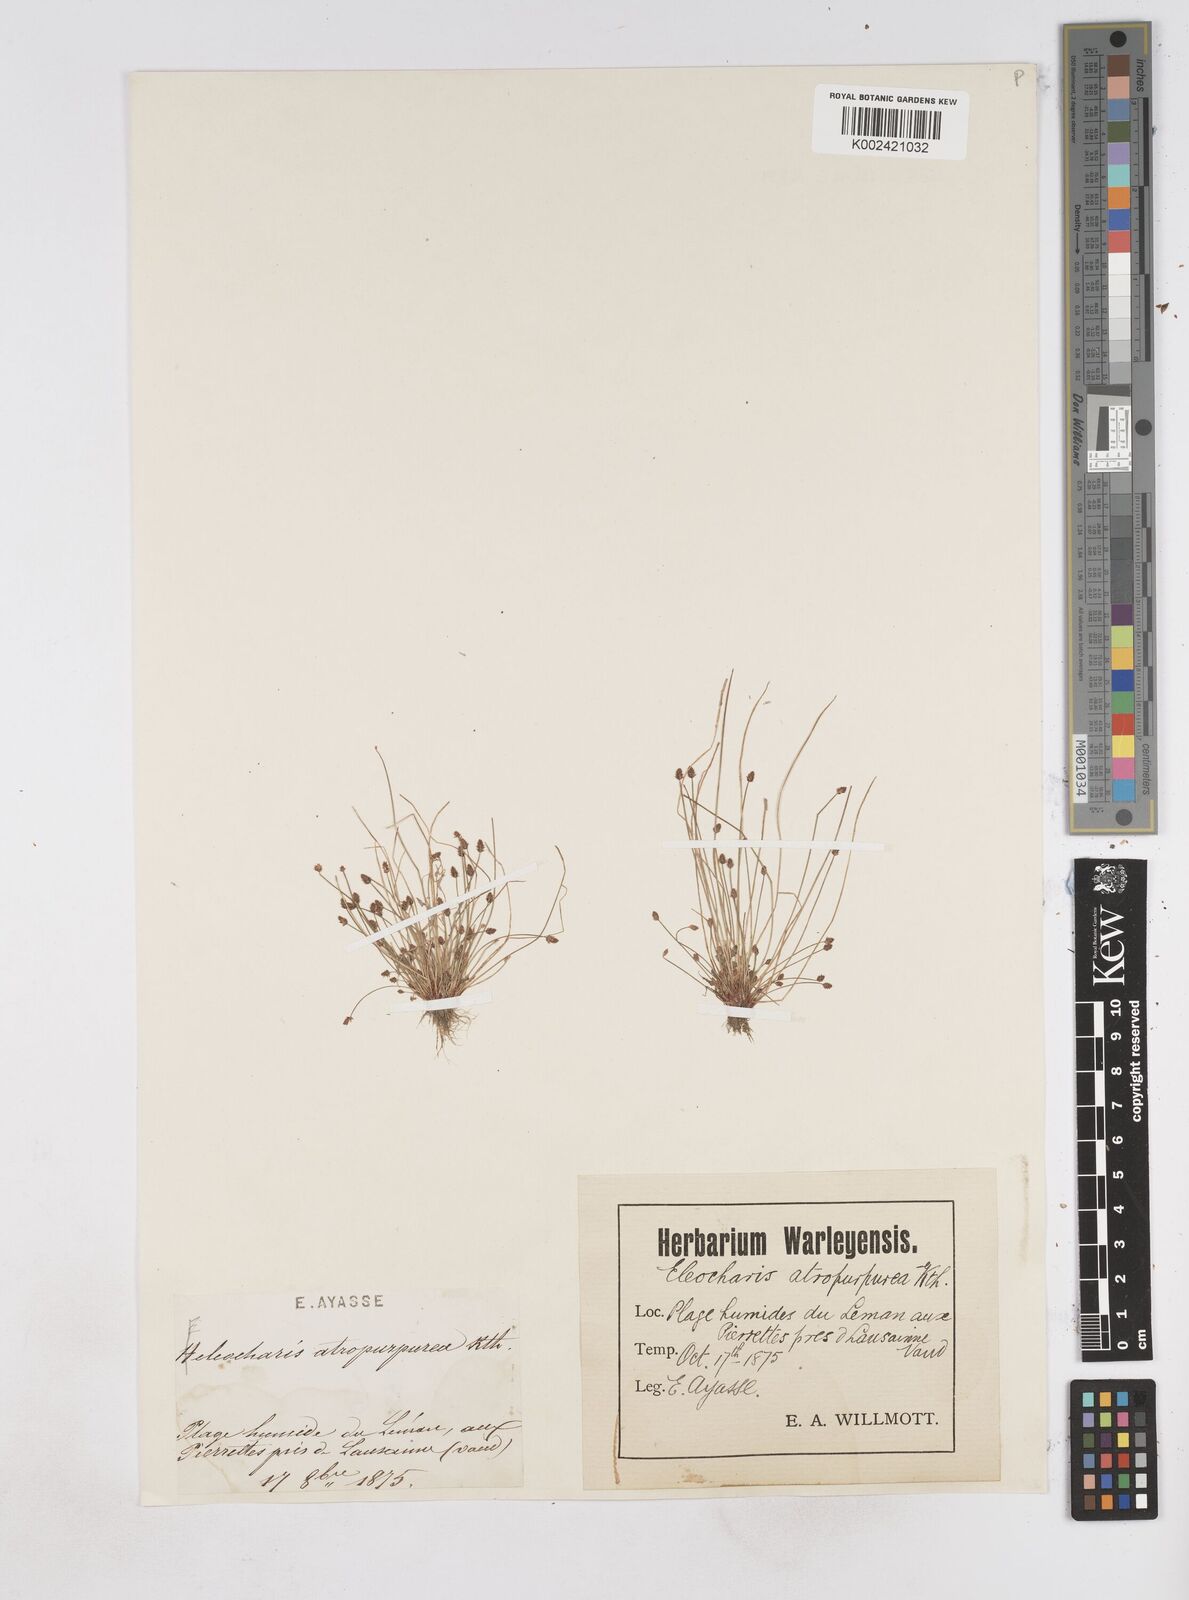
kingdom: Plantae
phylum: Tracheophyta
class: Liliopsida
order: Poales
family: Cyperaceae
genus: Eleocharis
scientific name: Eleocharis atropurpurea
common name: Purple spikerush
